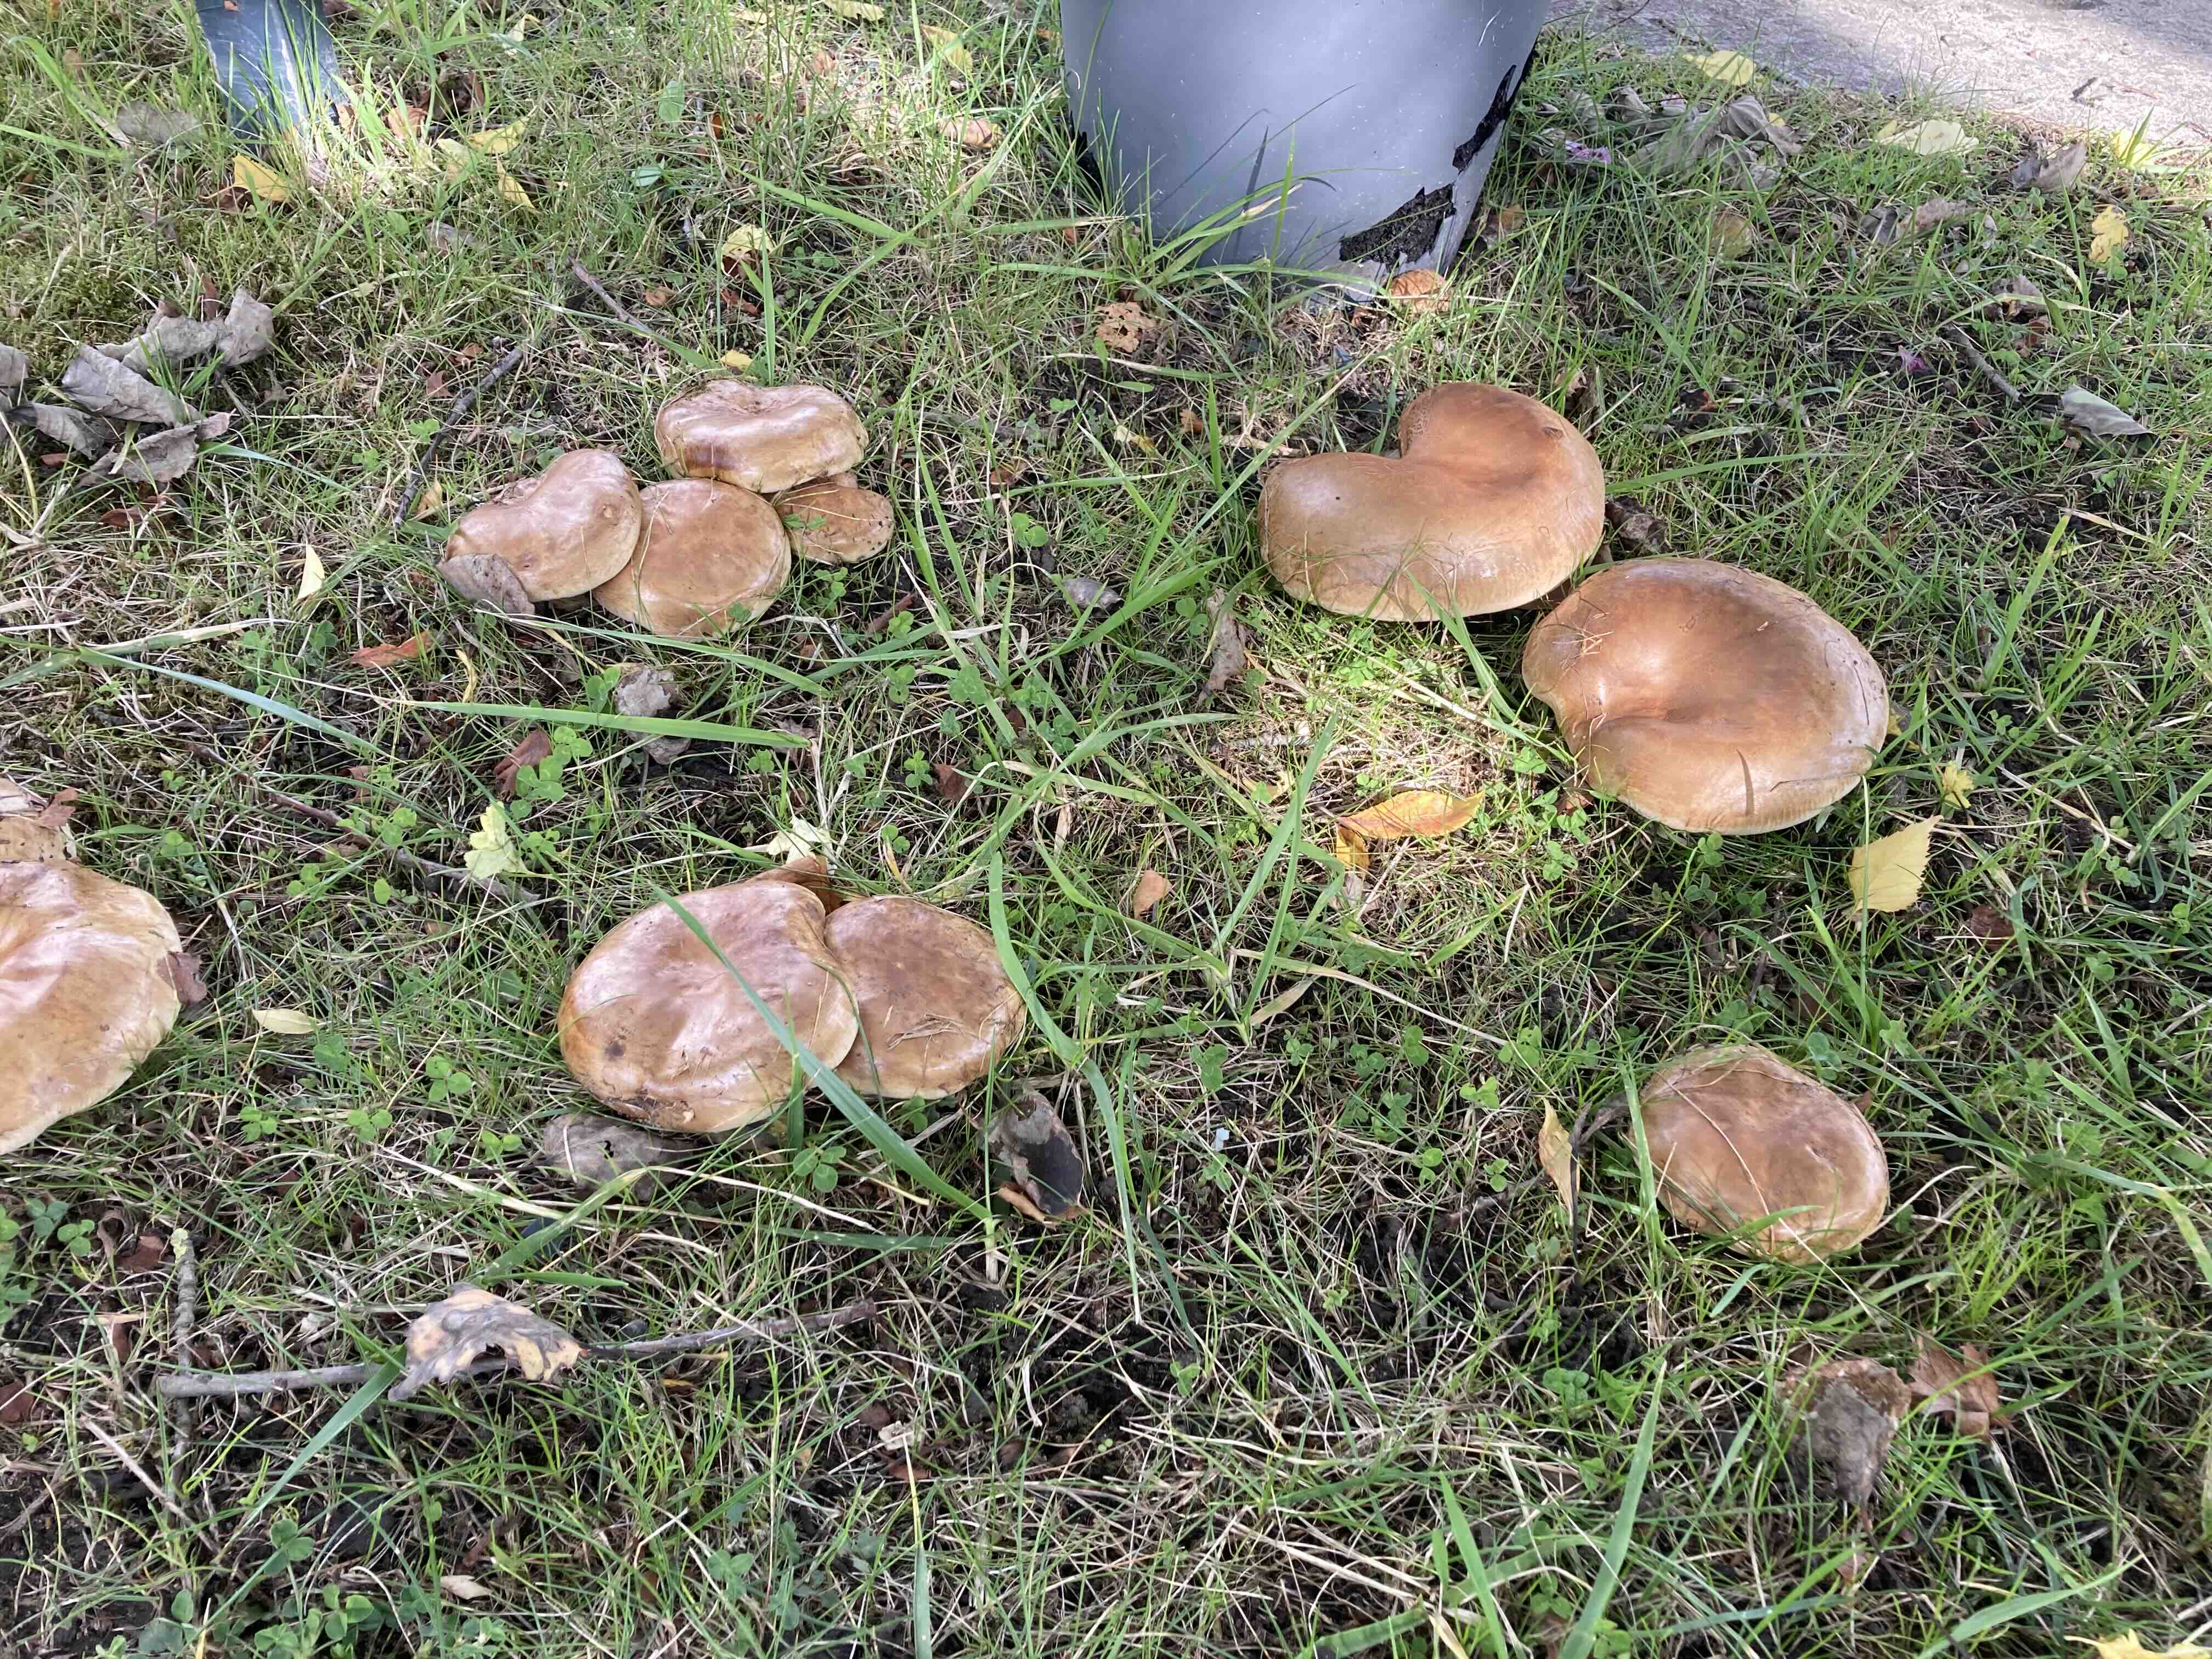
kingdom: Fungi
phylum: Basidiomycota
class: Agaricomycetes
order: Boletales
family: Paxillaceae
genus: Paxillus
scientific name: Paxillus obscurisporus
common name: mahognisporet netbladhat
